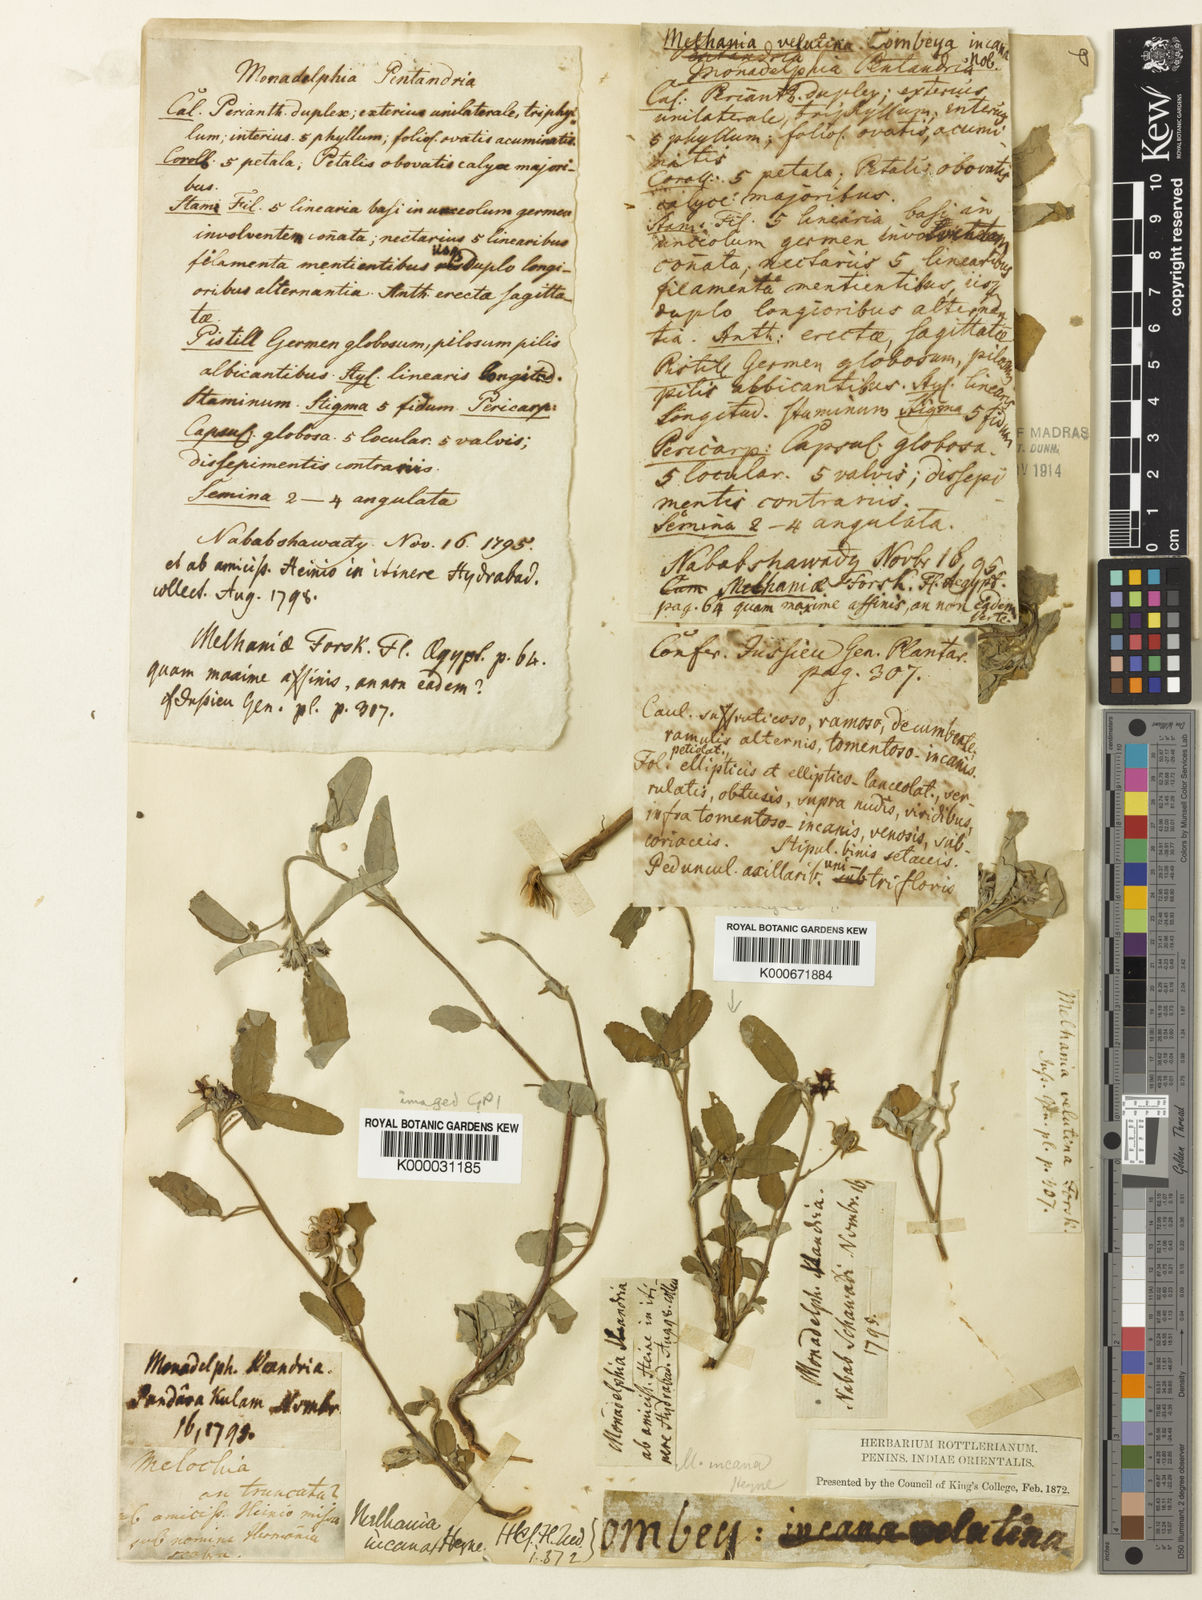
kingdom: Plantae
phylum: Tracheophyta
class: Magnoliopsida
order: Malvales
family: Malvaceae
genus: Melhania
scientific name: Melhania
